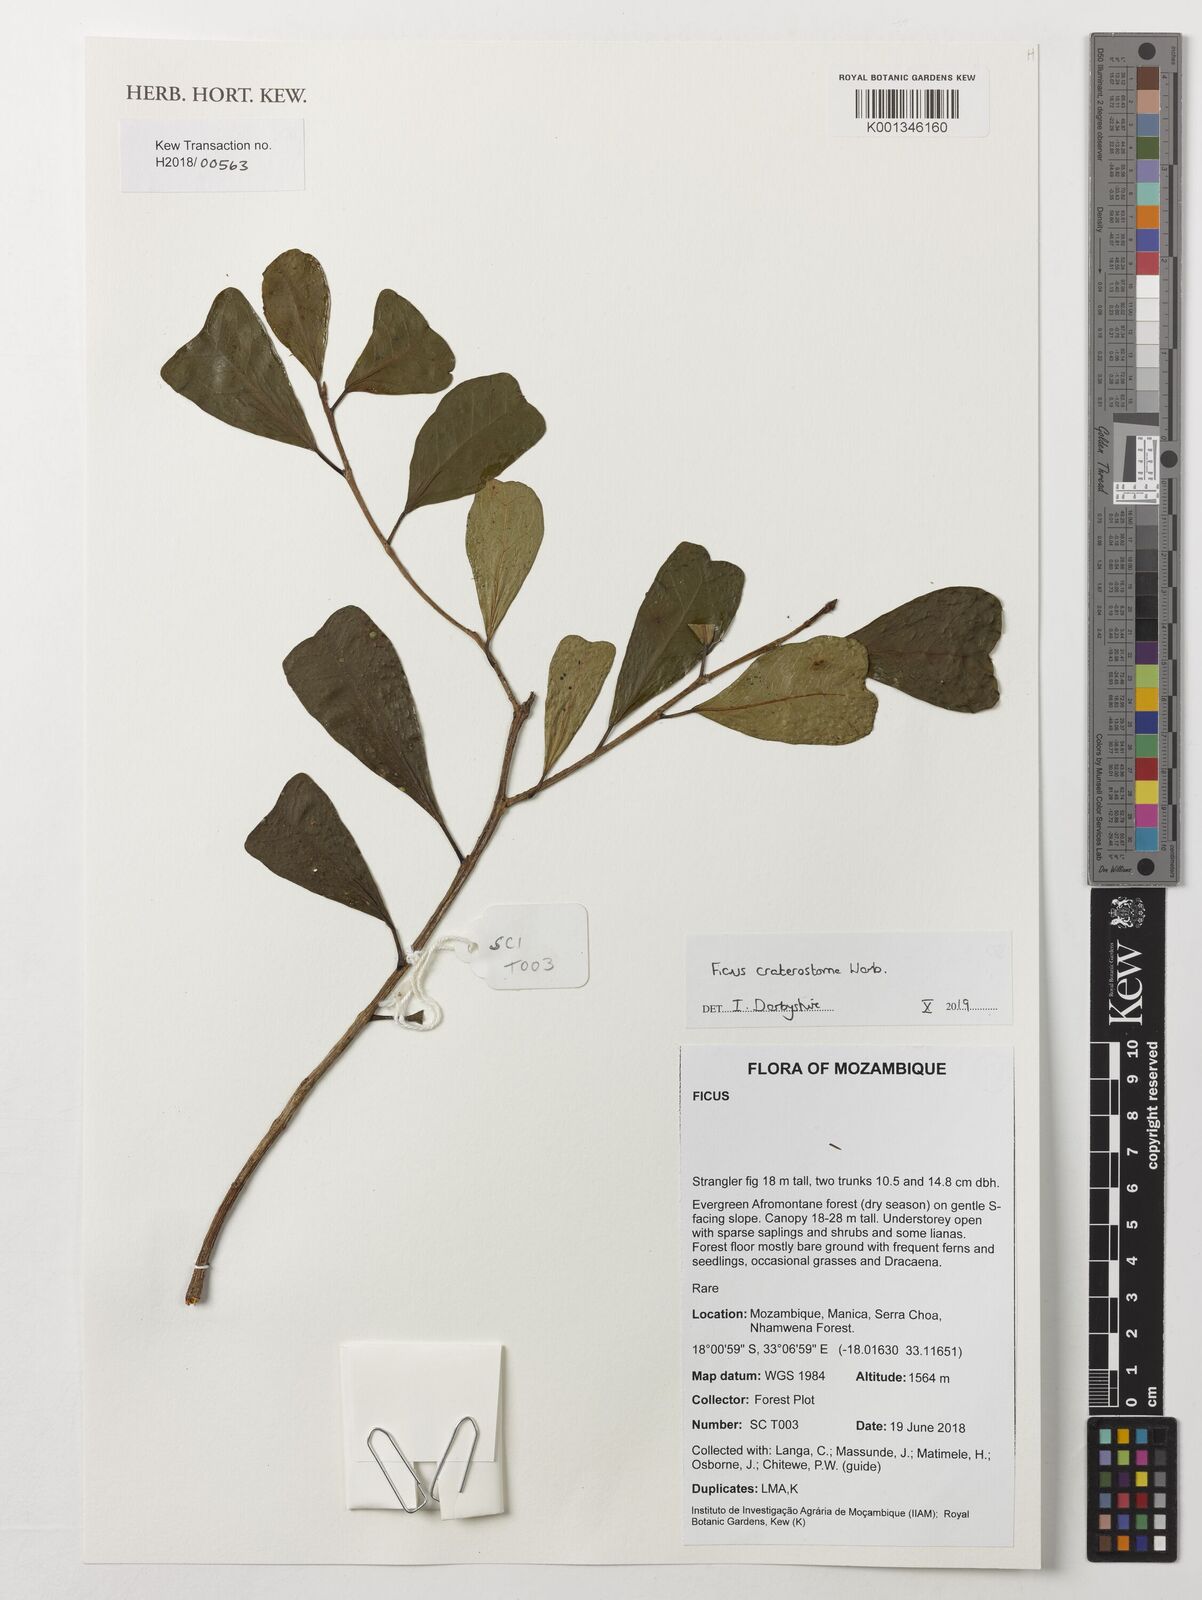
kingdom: Plantae
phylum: Tracheophyta
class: Magnoliopsida
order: Rosales
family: Moraceae
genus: Ficus
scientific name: Ficus craterostoma
